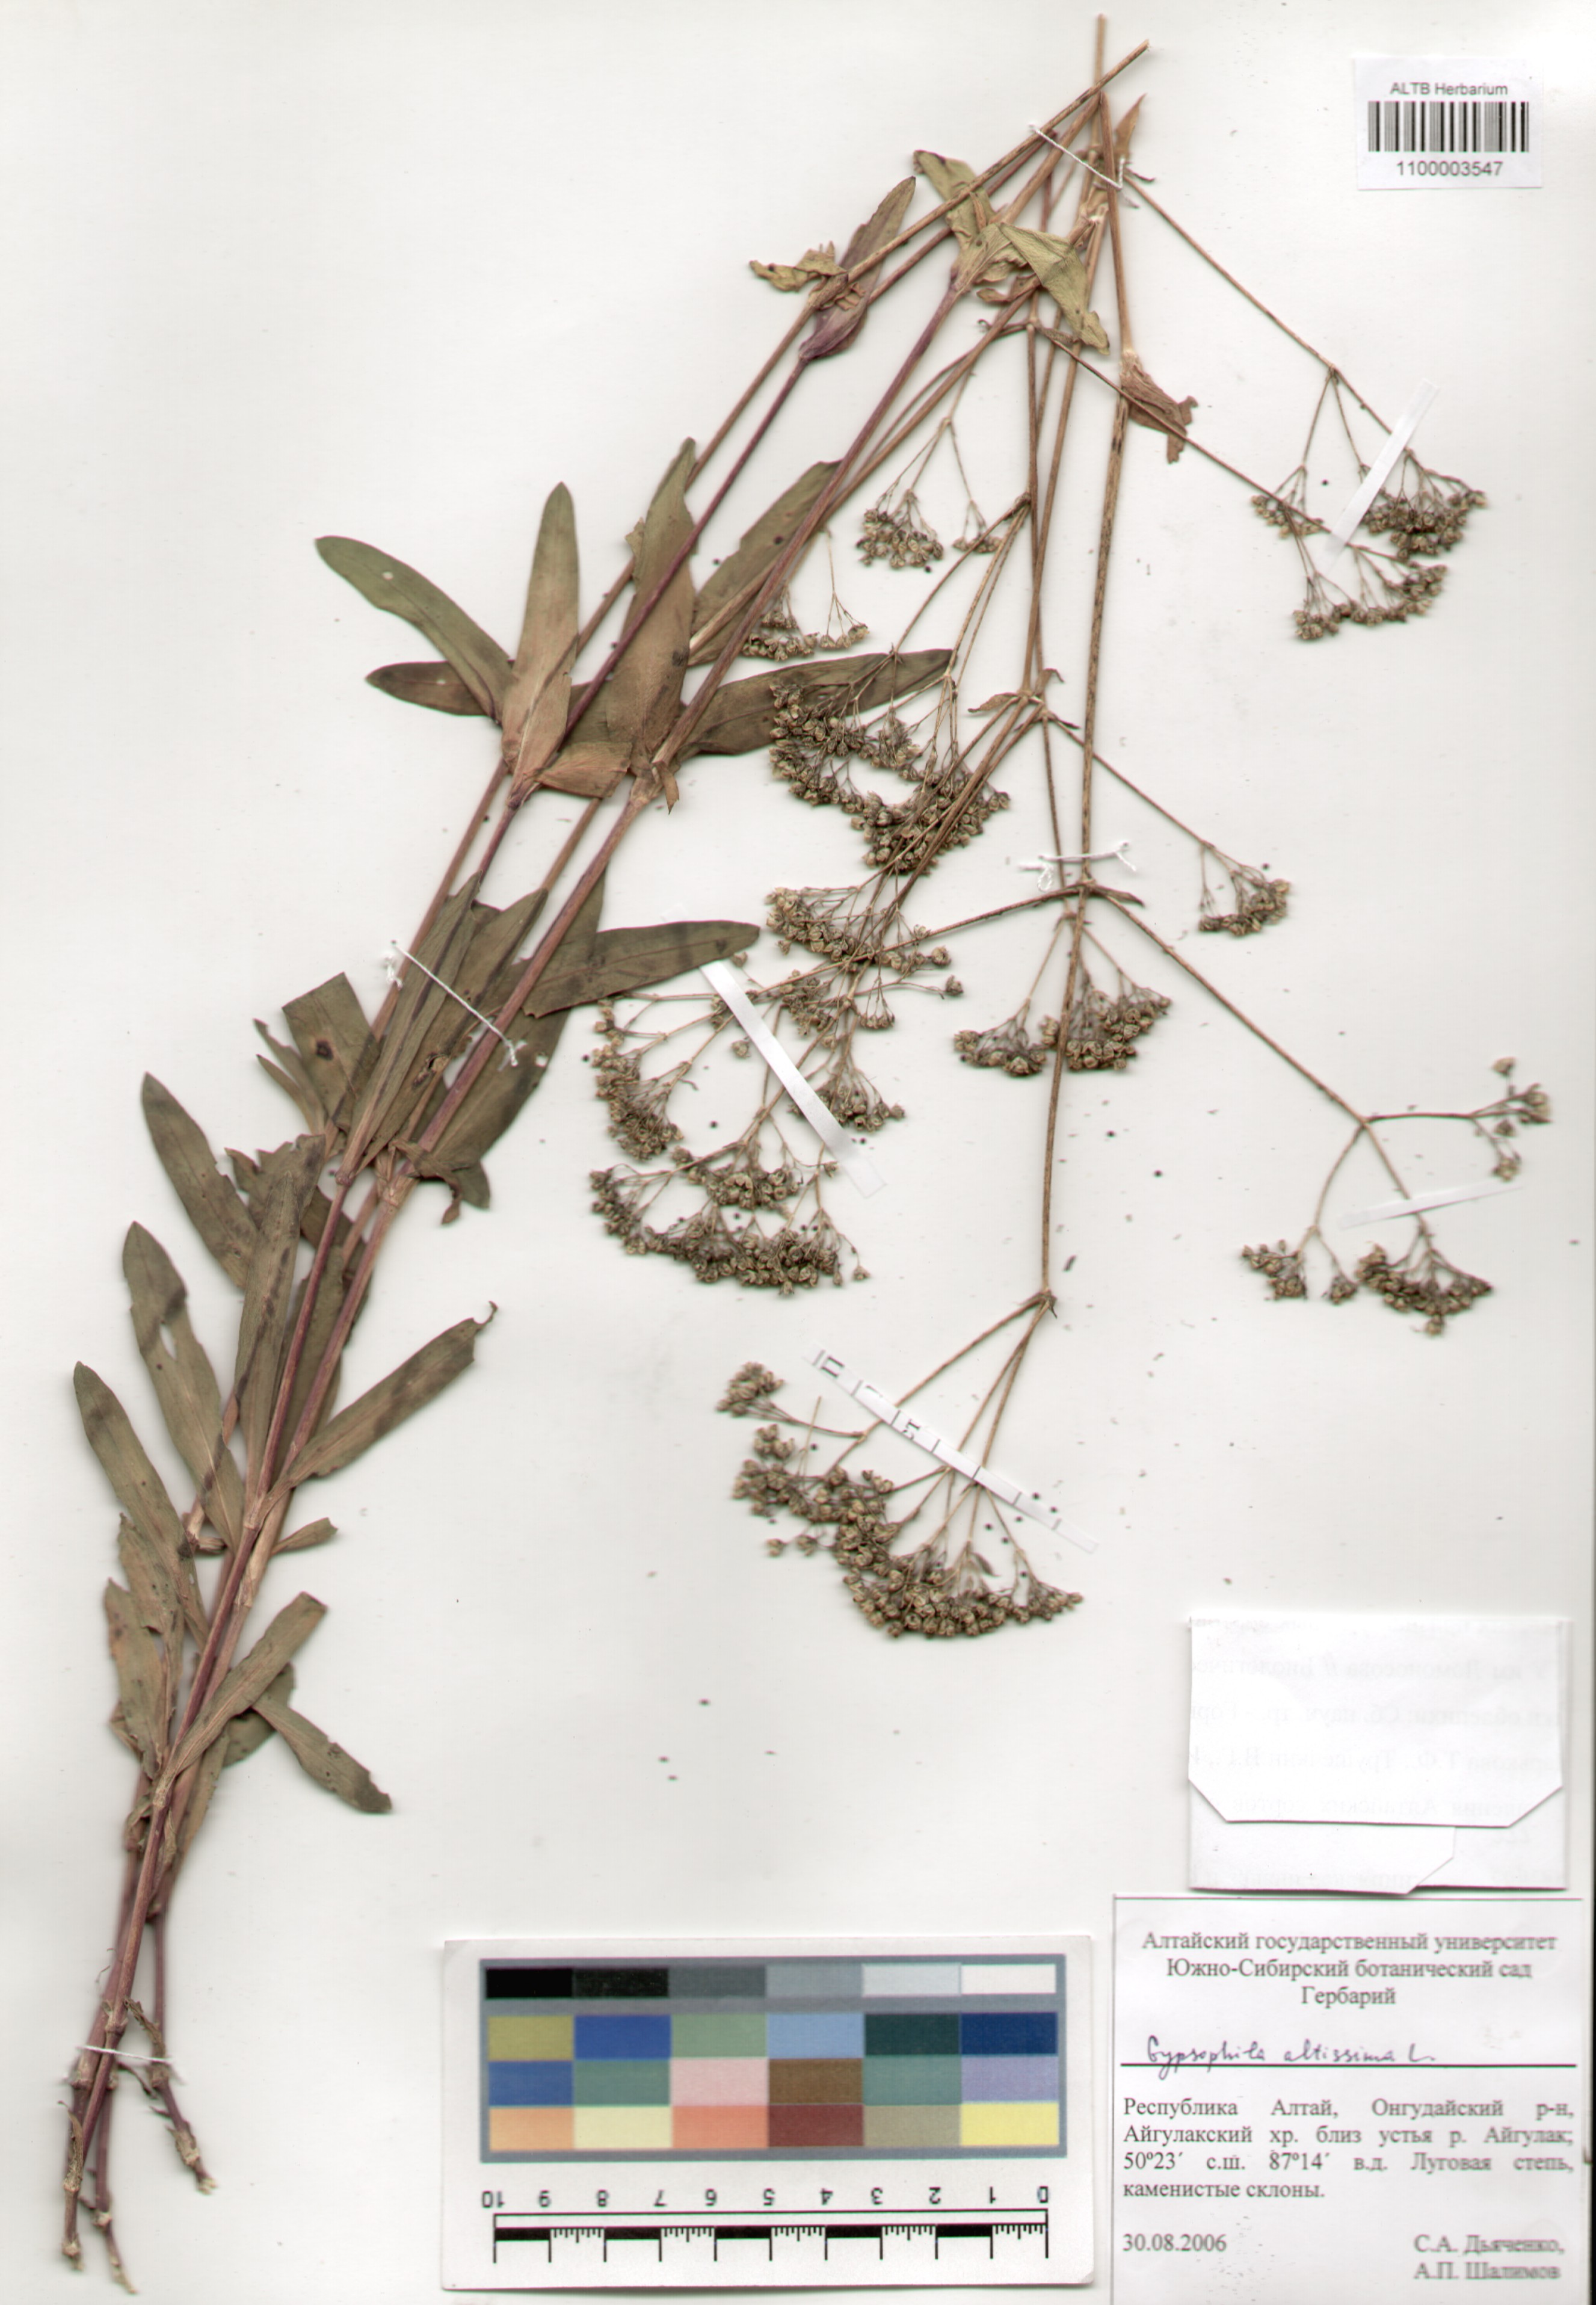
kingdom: Plantae
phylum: Tracheophyta
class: Magnoliopsida
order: Caryophyllales
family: Caryophyllaceae
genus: Gypsophila
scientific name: Gypsophila altissima
